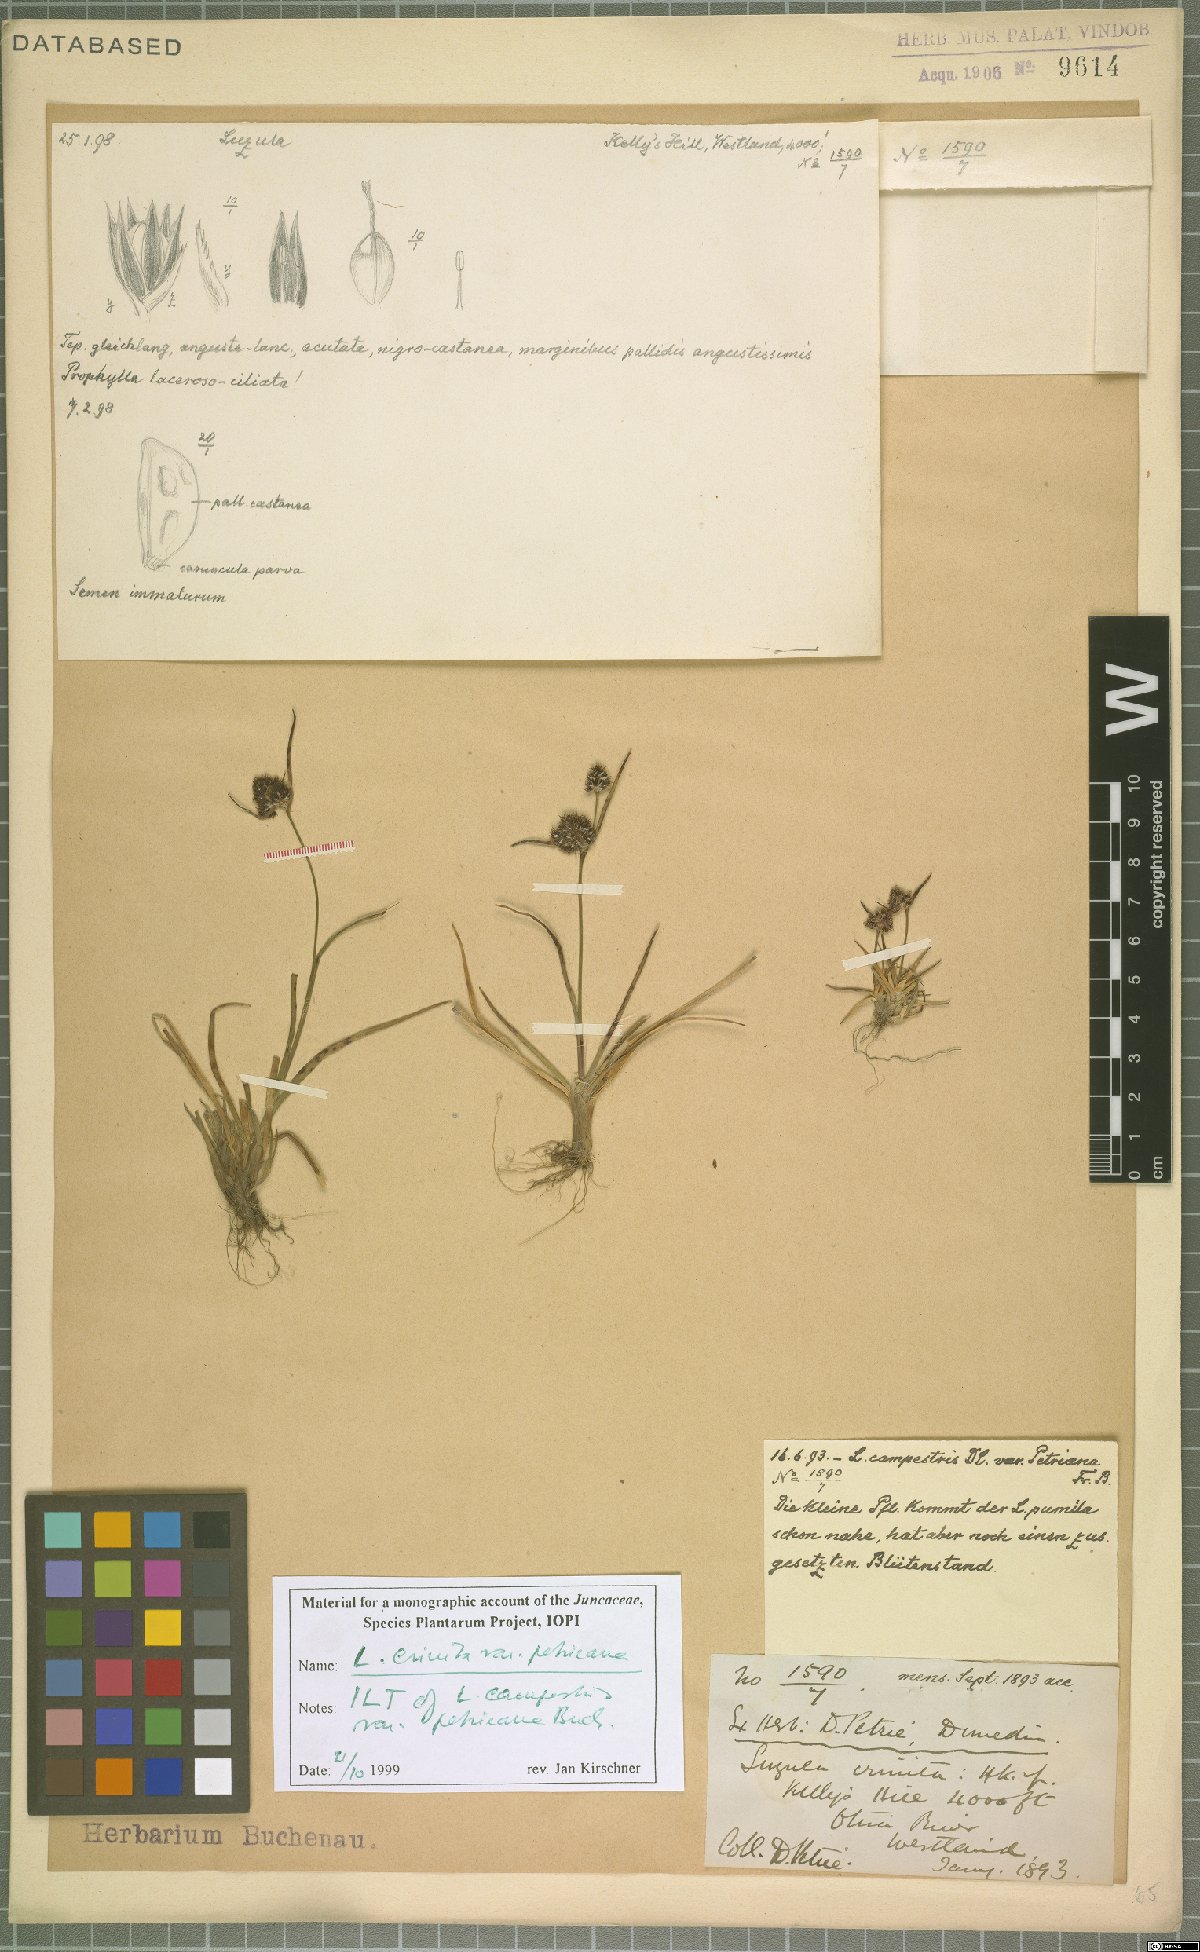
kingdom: Plantae
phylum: Tracheophyta
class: Liliopsida
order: Poales
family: Juncaceae
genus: Luzula
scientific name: Luzula crinita
